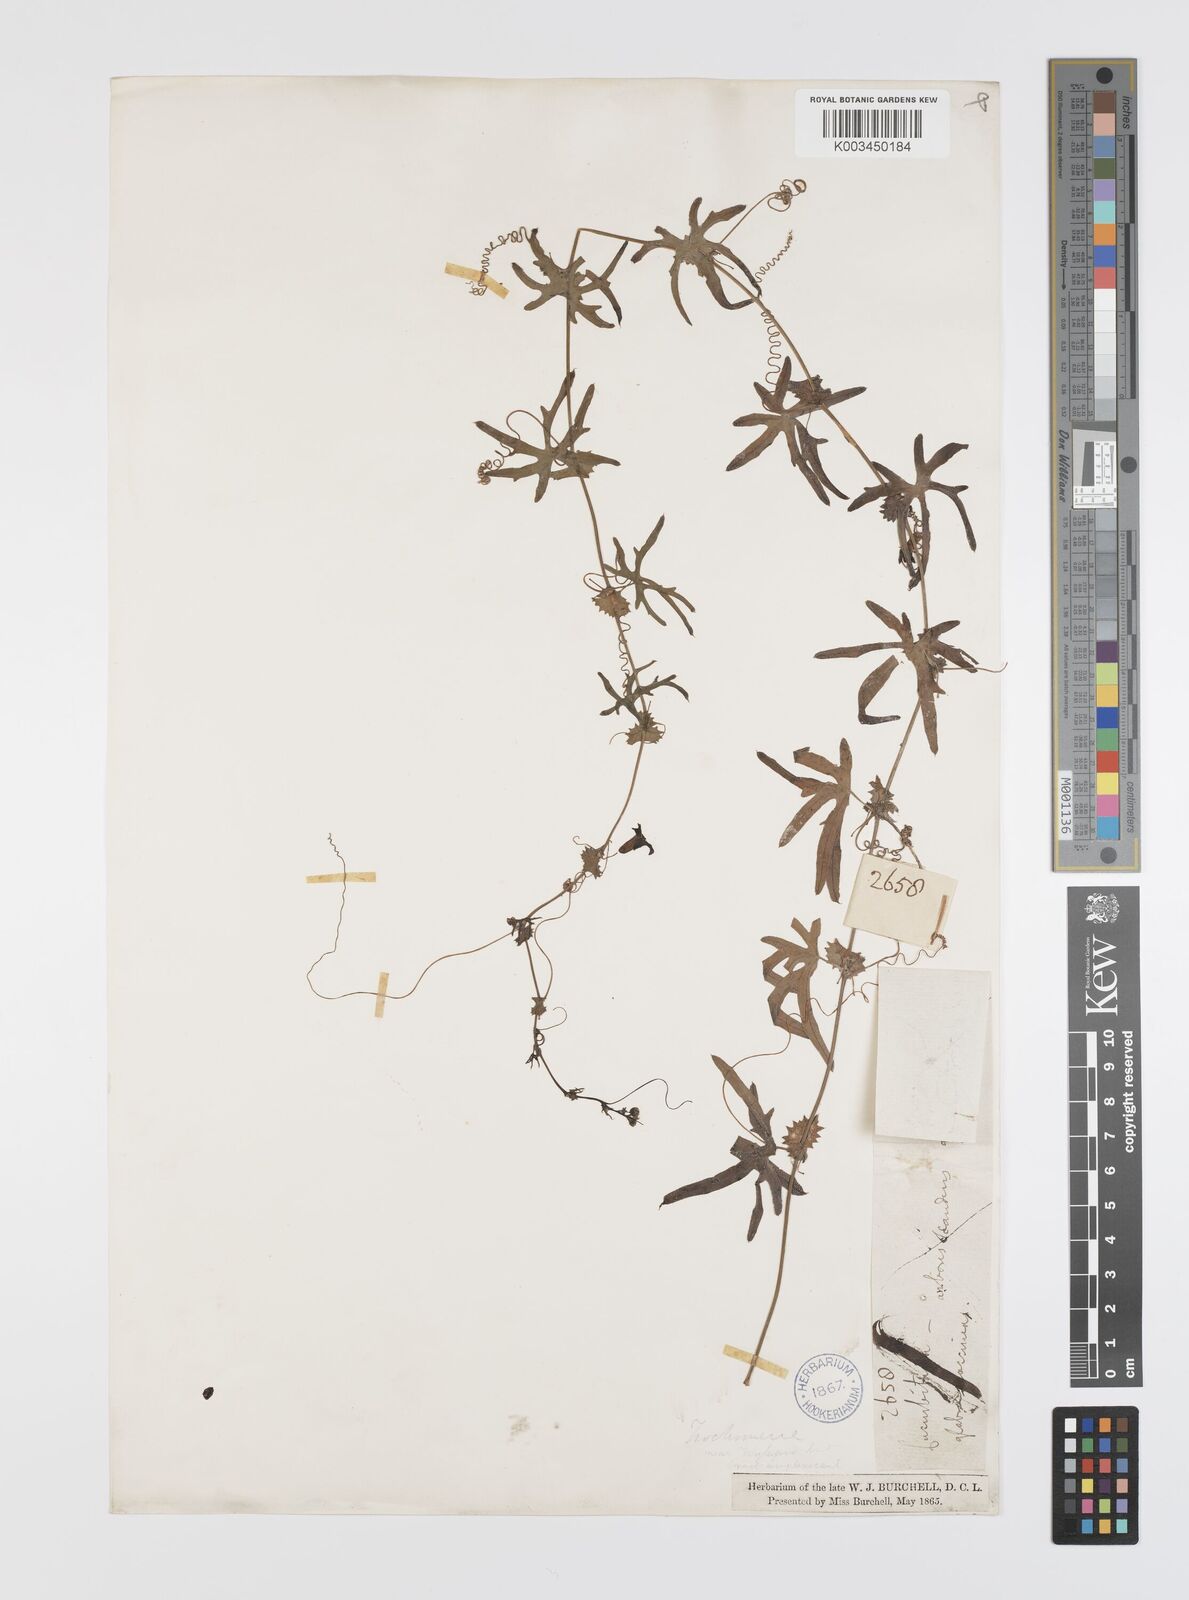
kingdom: Plantae
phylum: Tracheophyta
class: Magnoliopsida
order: Cucurbitales
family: Cucurbitaceae
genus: Trochomeria
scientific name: Trochomeria debilis
